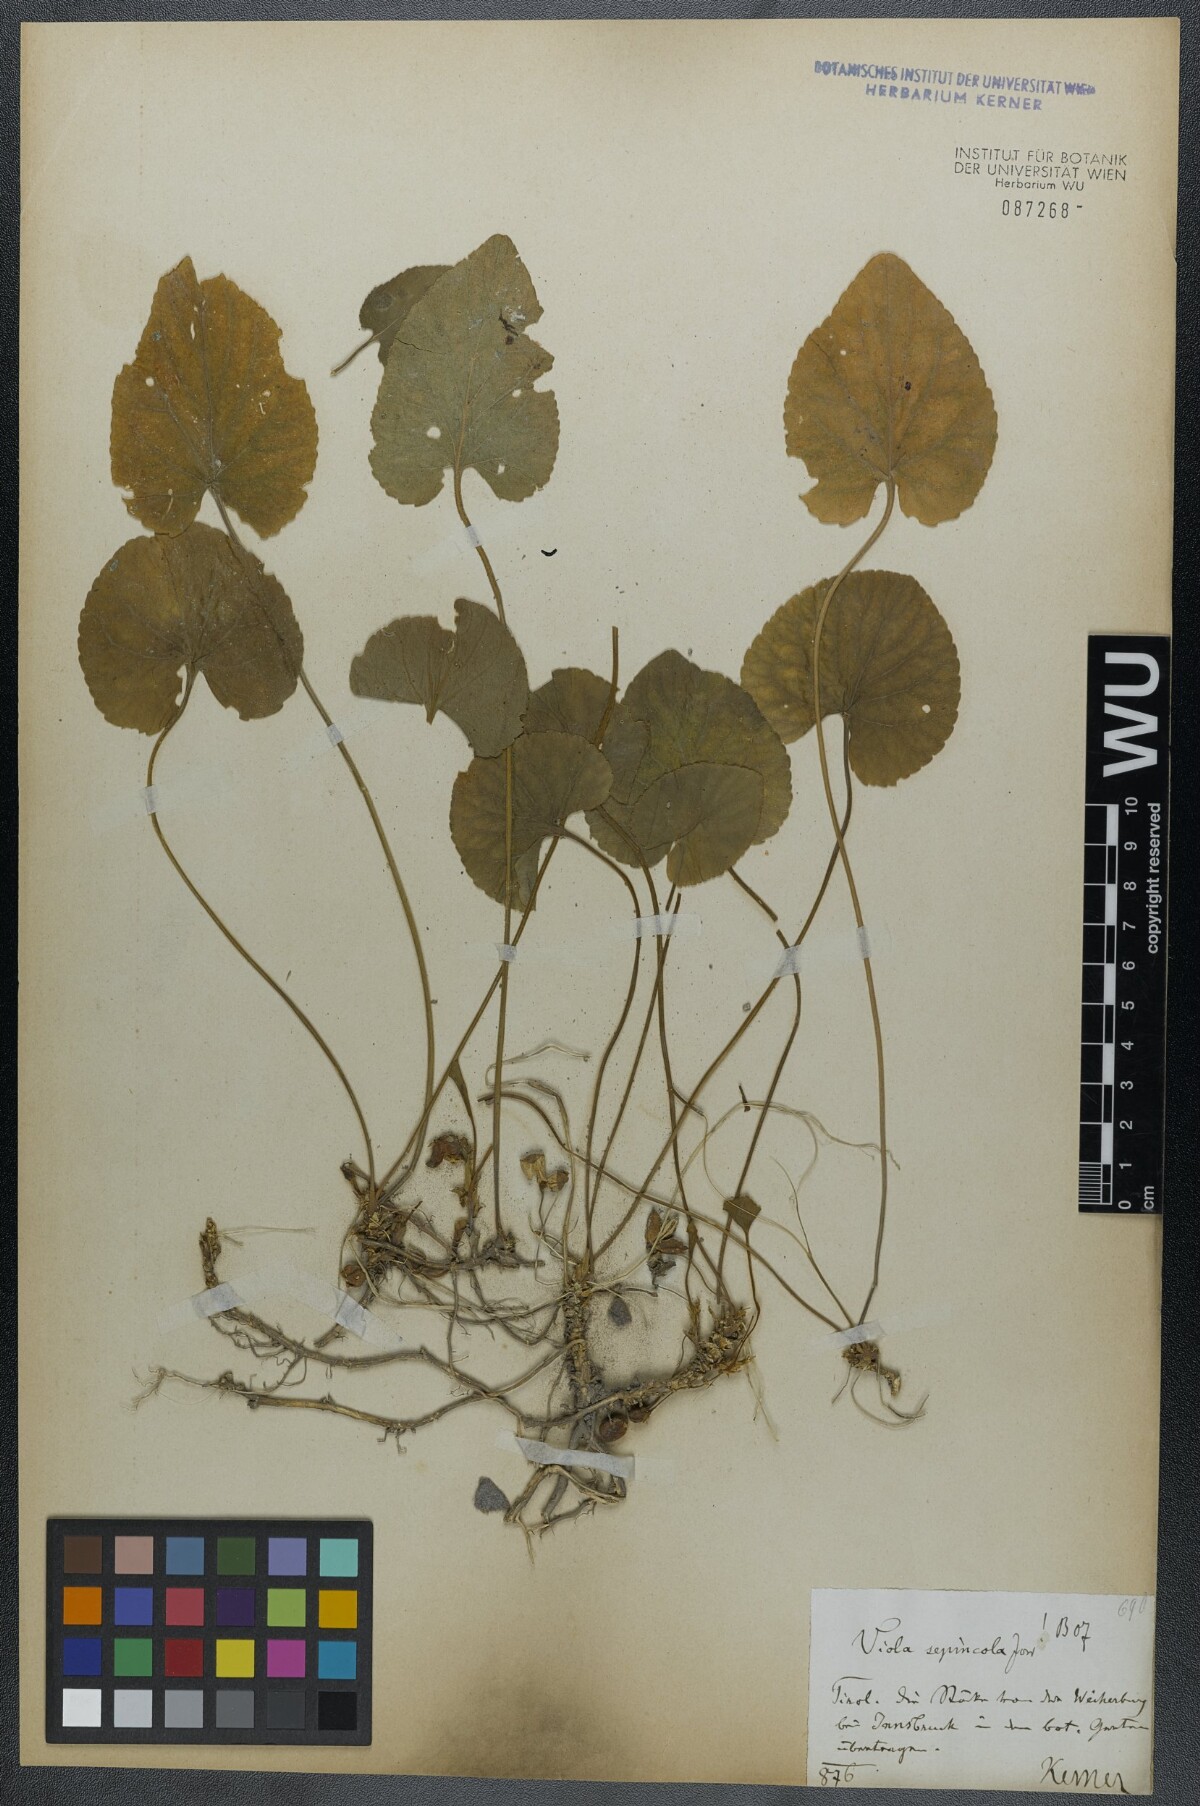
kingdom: Plantae
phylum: Tracheophyta
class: Magnoliopsida
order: Malpighiales
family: Violaceae
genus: Viola
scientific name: Viola suavis
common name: Russian violet
